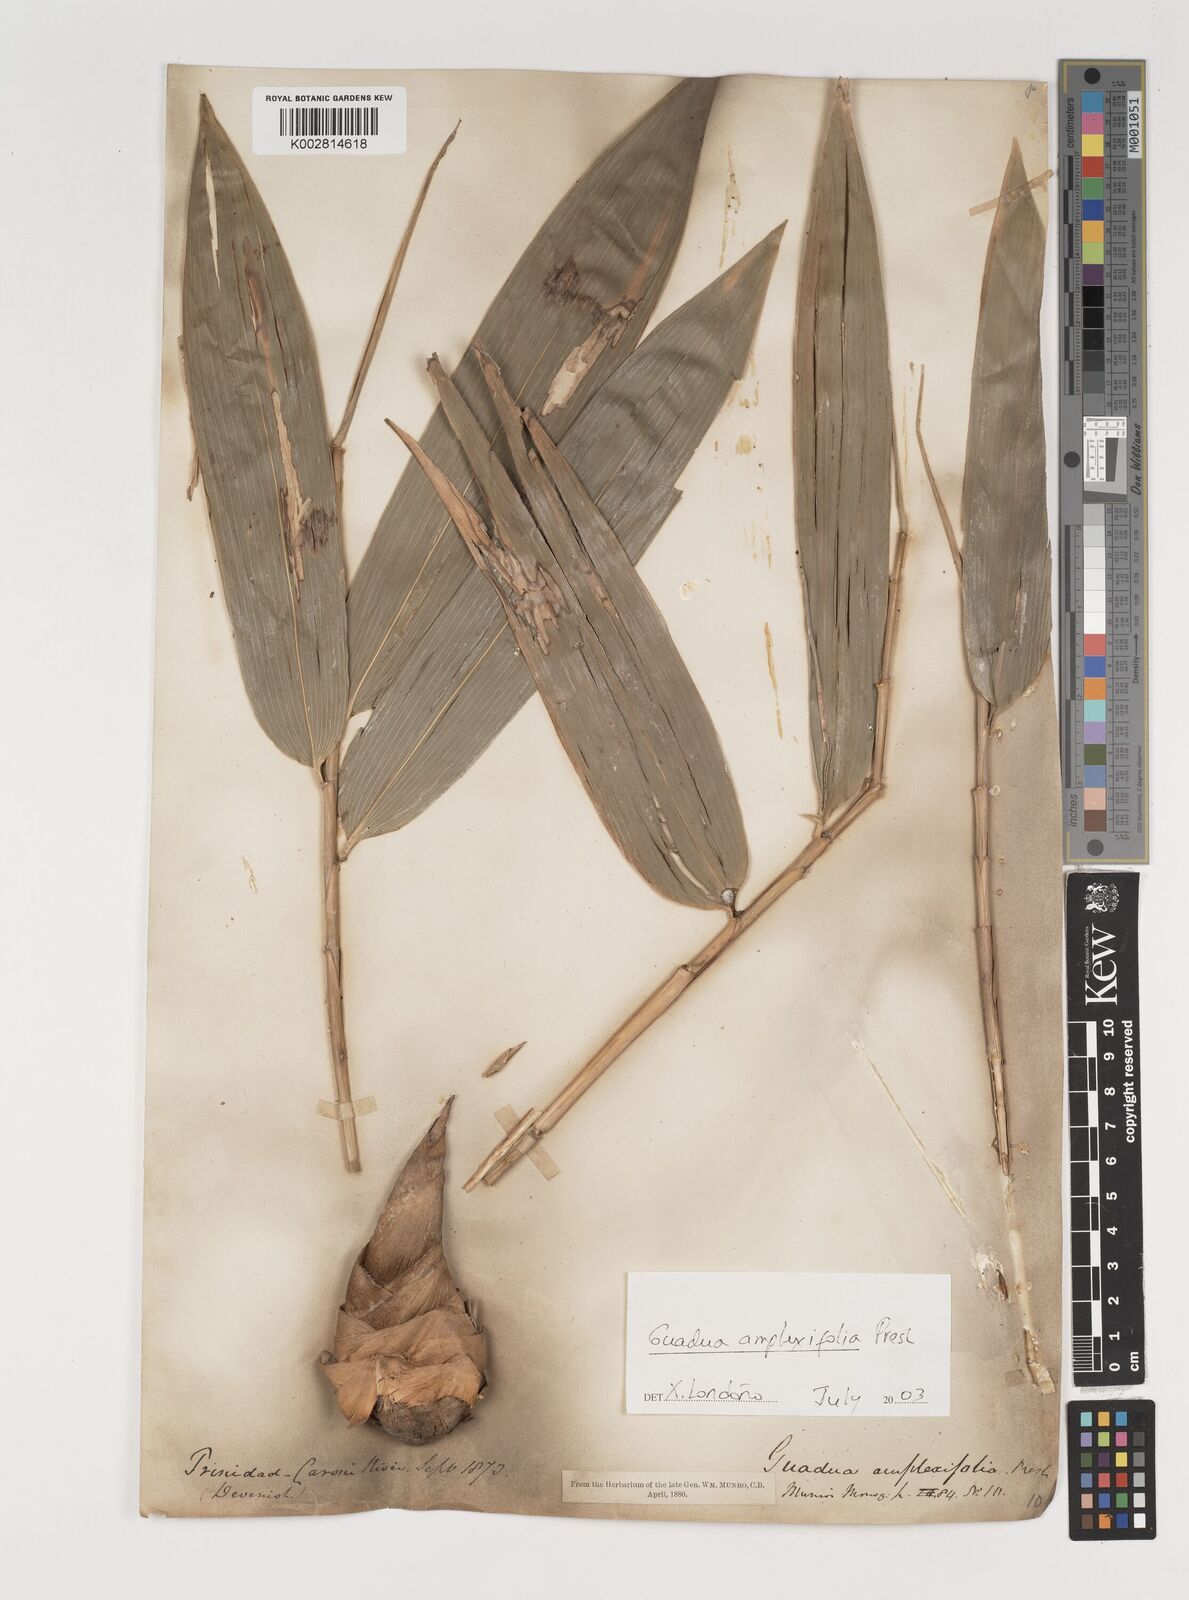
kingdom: Plantae
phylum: Tracheophyta
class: Liliopsida
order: Poales
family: Poaceae
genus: Guadua
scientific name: Guadua amplexifolia
